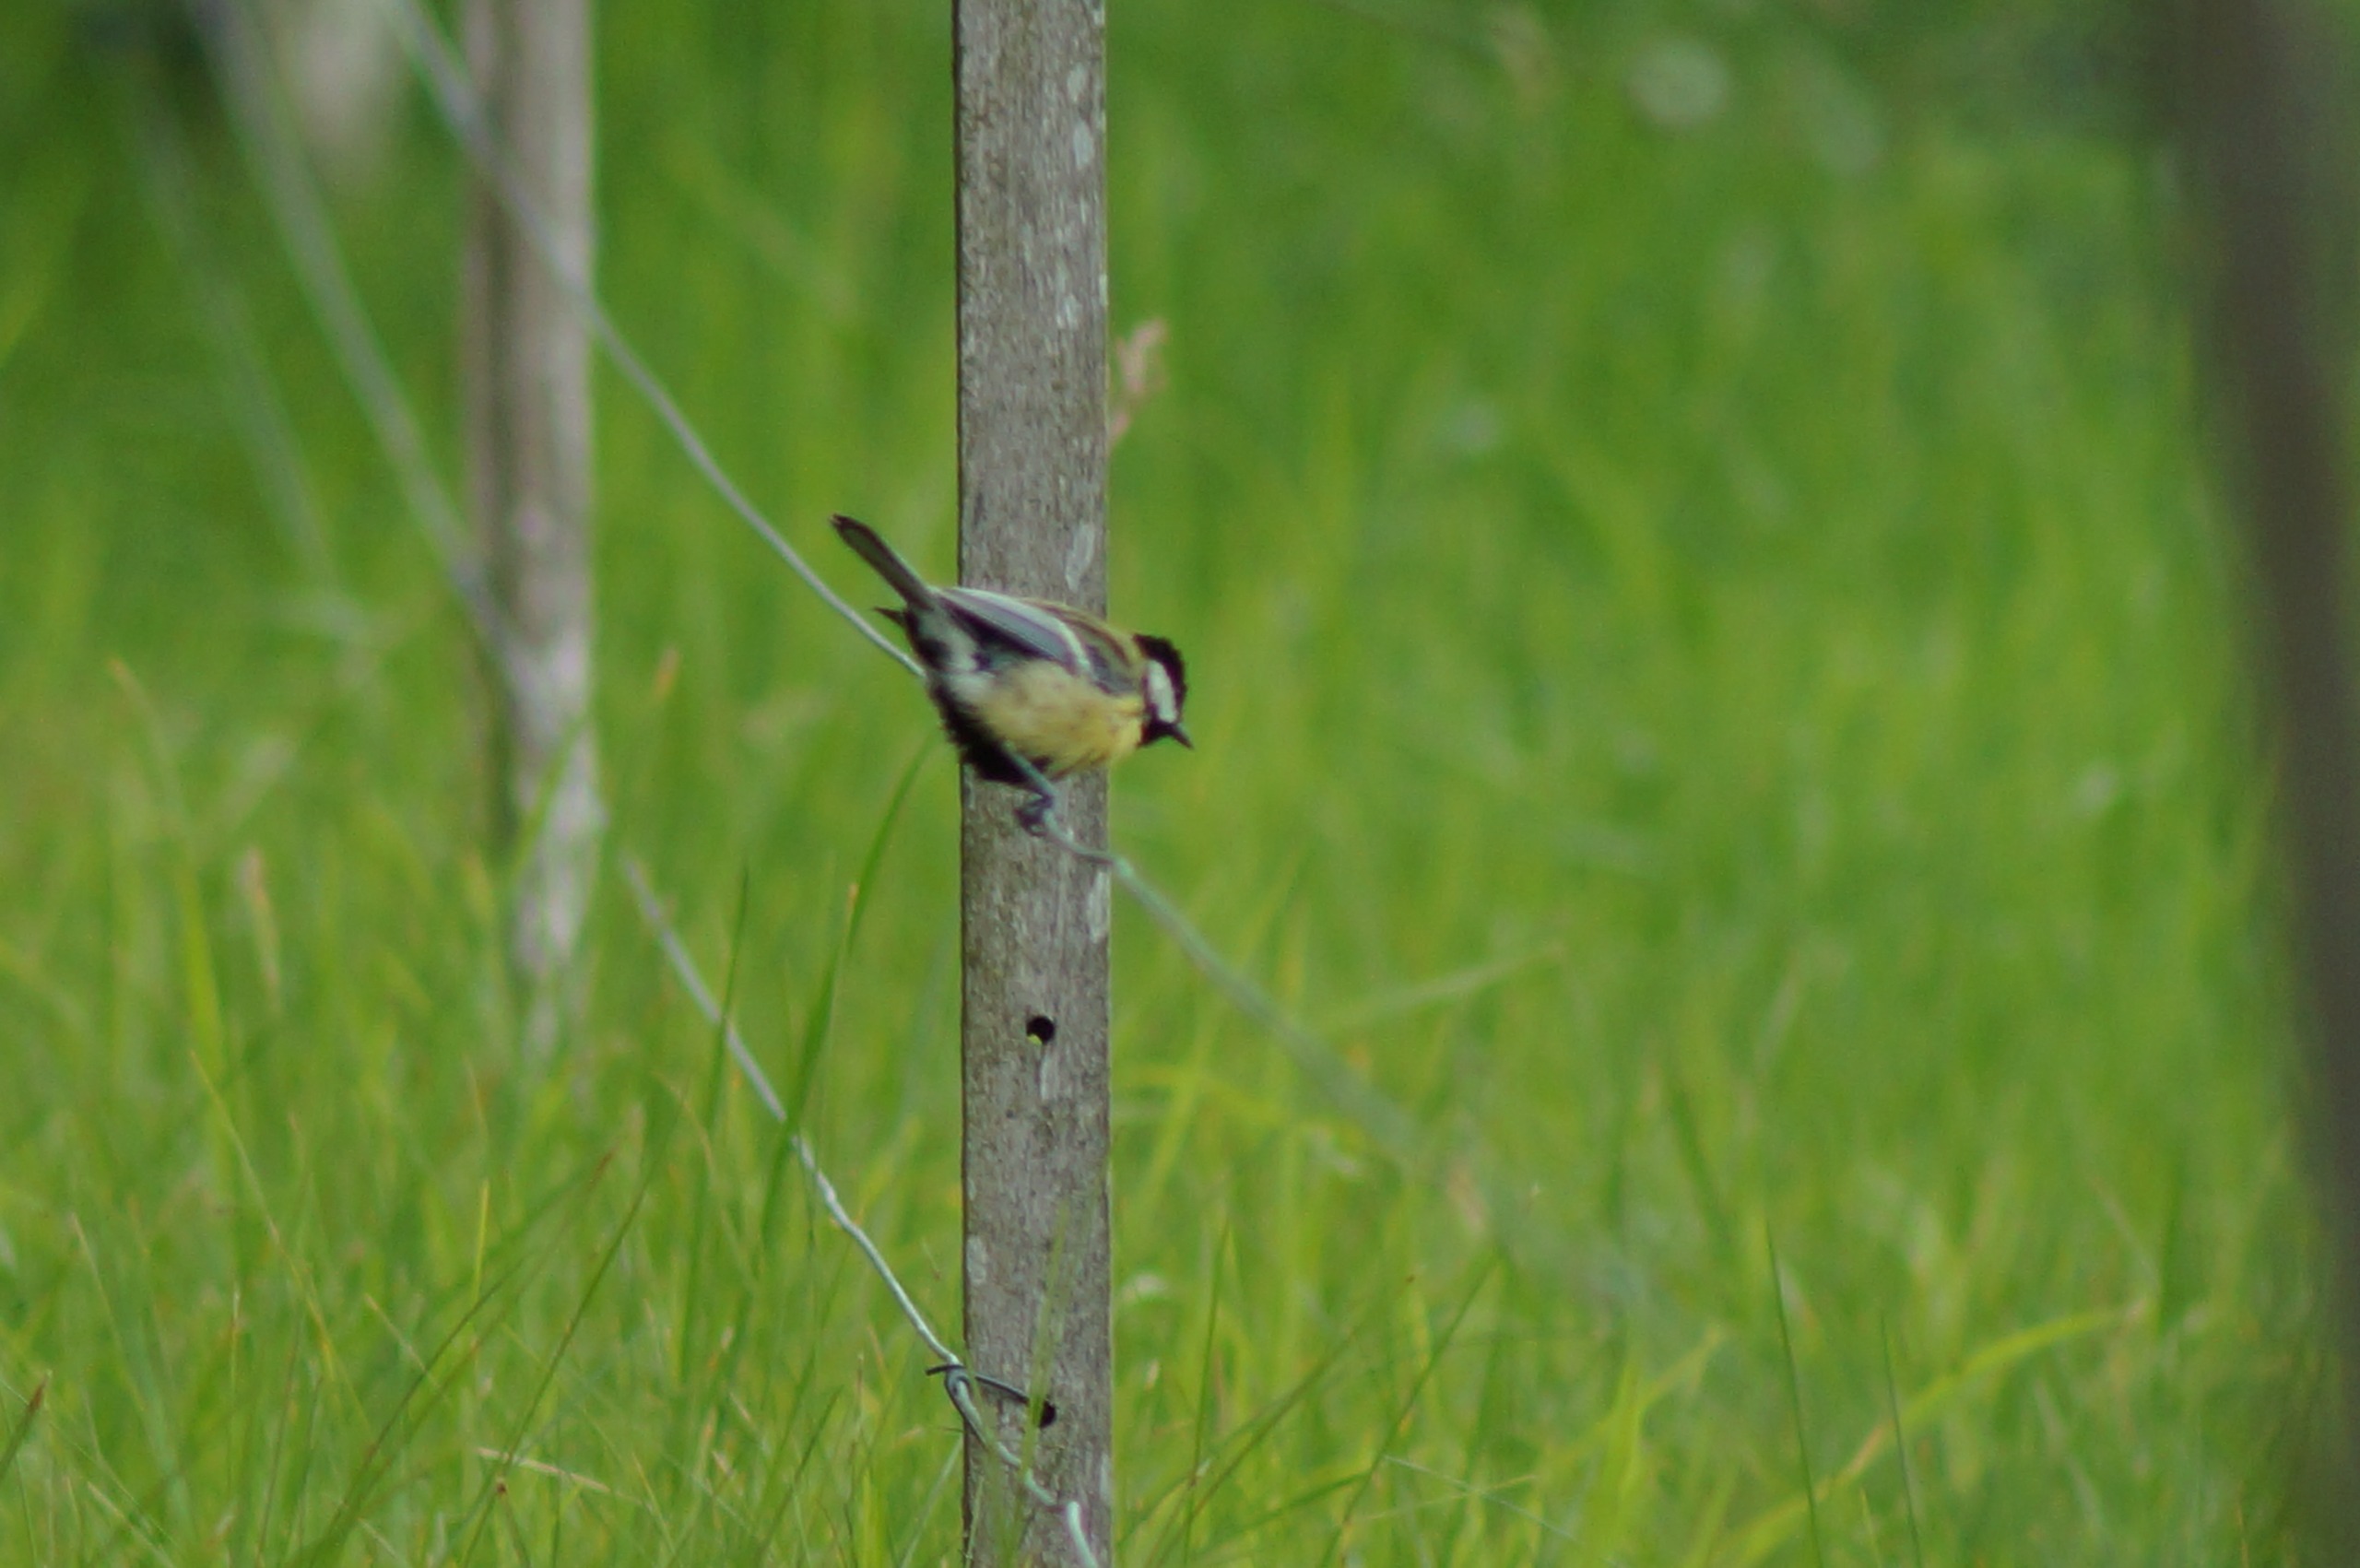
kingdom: Animalia
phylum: Chordata
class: Aves
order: Passeriformes
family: Paridae
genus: Parus
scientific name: Parus major
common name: Musvit
